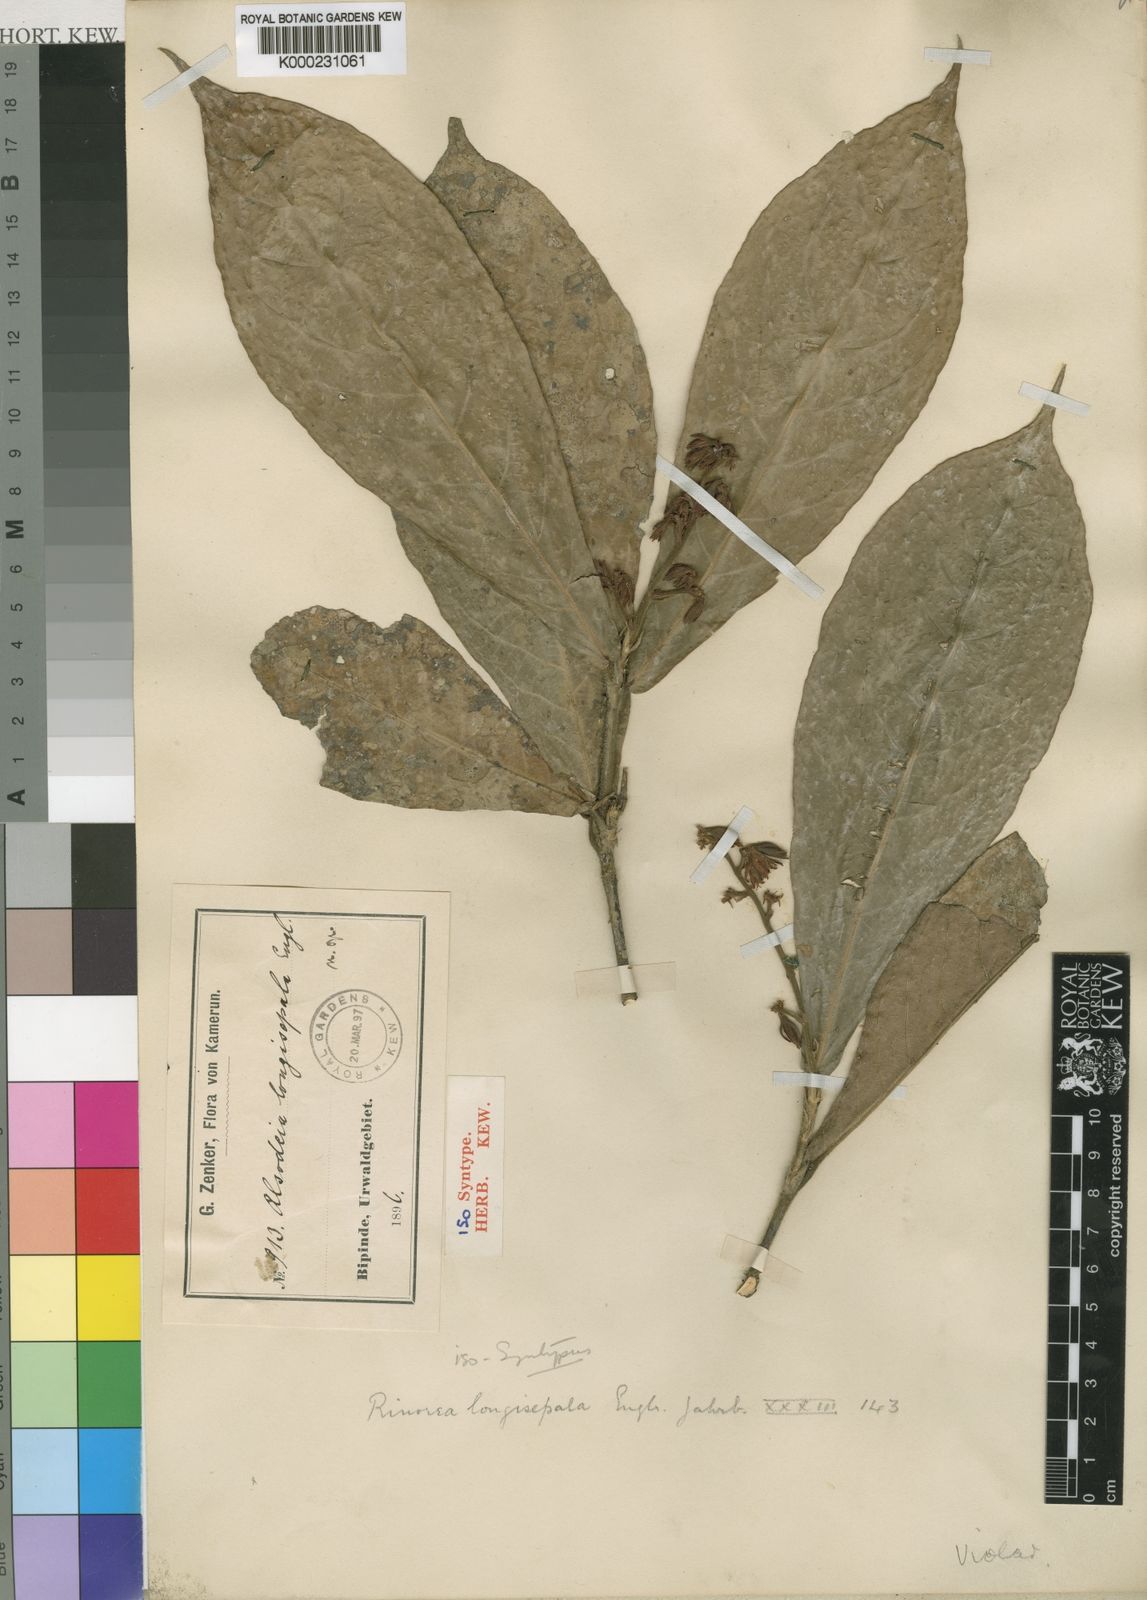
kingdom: Plantae
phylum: Tracheophyta
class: Magnoliopsida
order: Malpighiales
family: Violaceae
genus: Rinorea
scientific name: Rinorea longisepala
